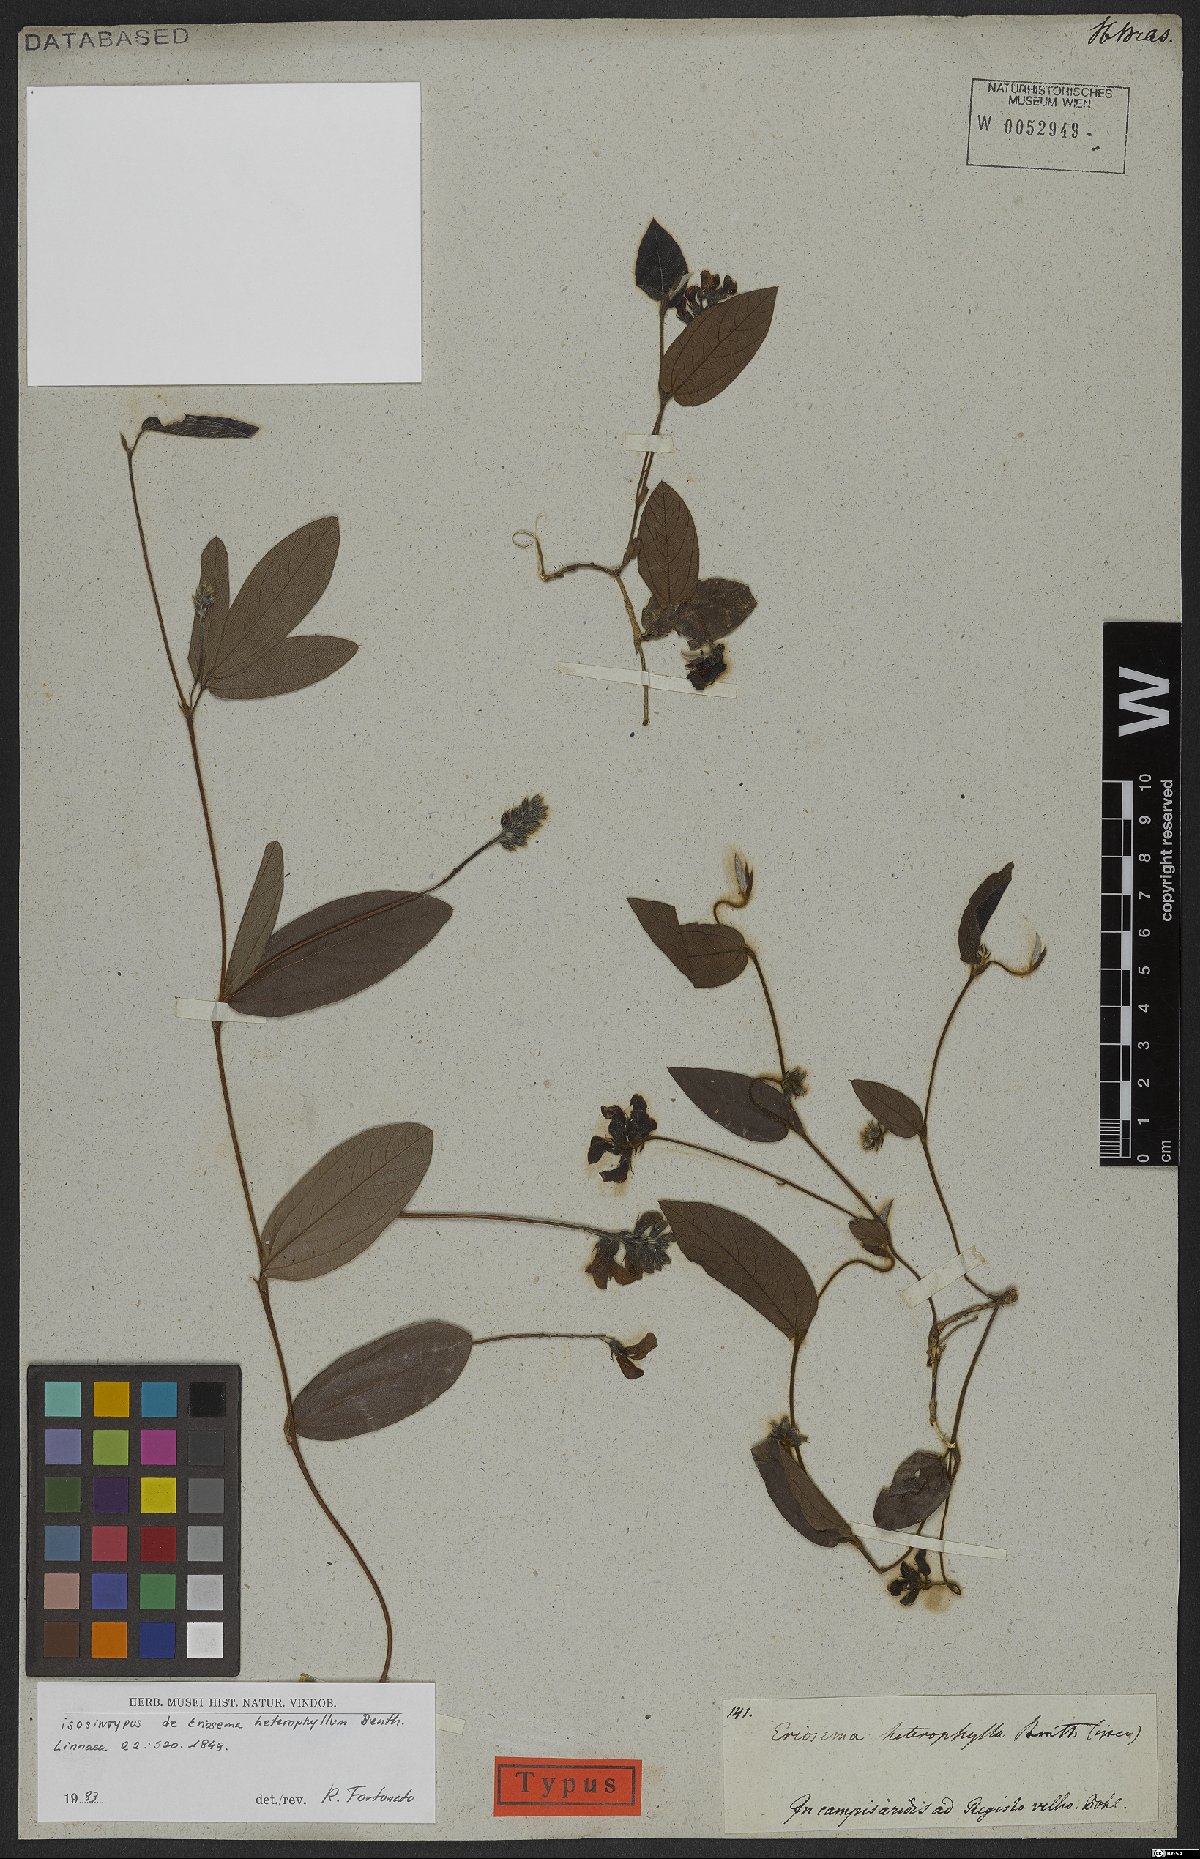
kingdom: Plantae
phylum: Tracheophyta
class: Magnoliopsida
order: Fabales
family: Fabaceae
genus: Eriosema
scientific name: Eriosema heterophyllum
